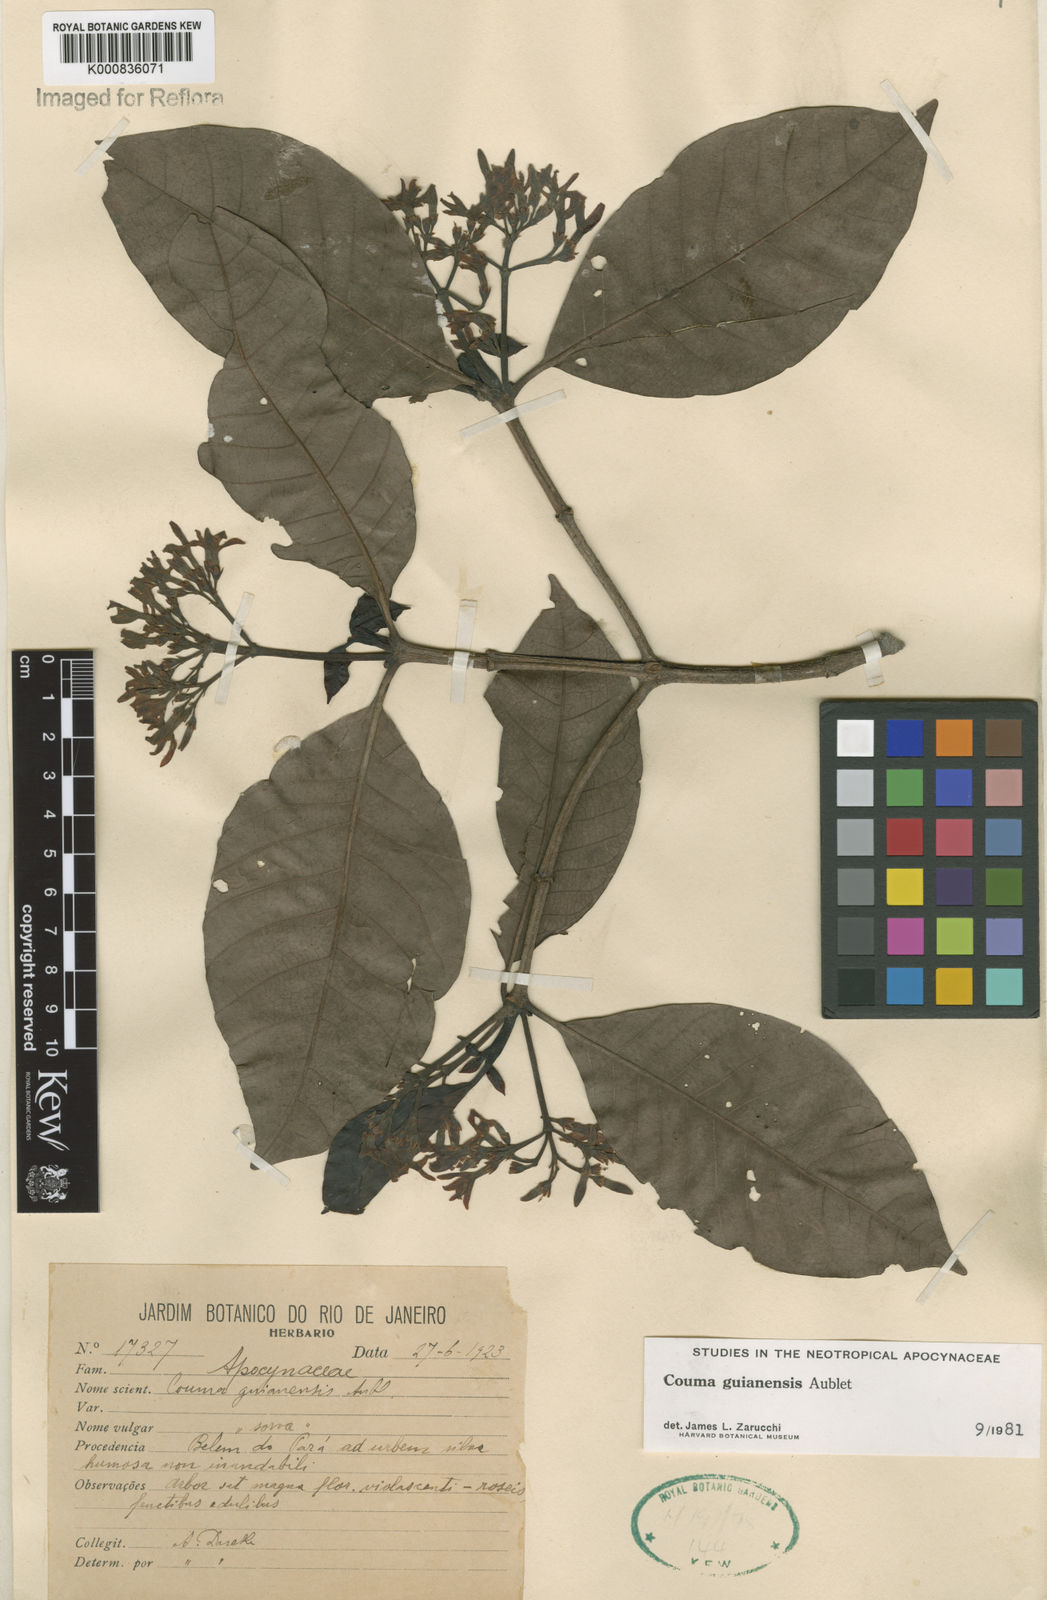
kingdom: Plantae
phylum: Tracheophyta
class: Magnoliopsida
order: Gentianales
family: Apocynaceae
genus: Couma
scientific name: Couma guianensis
